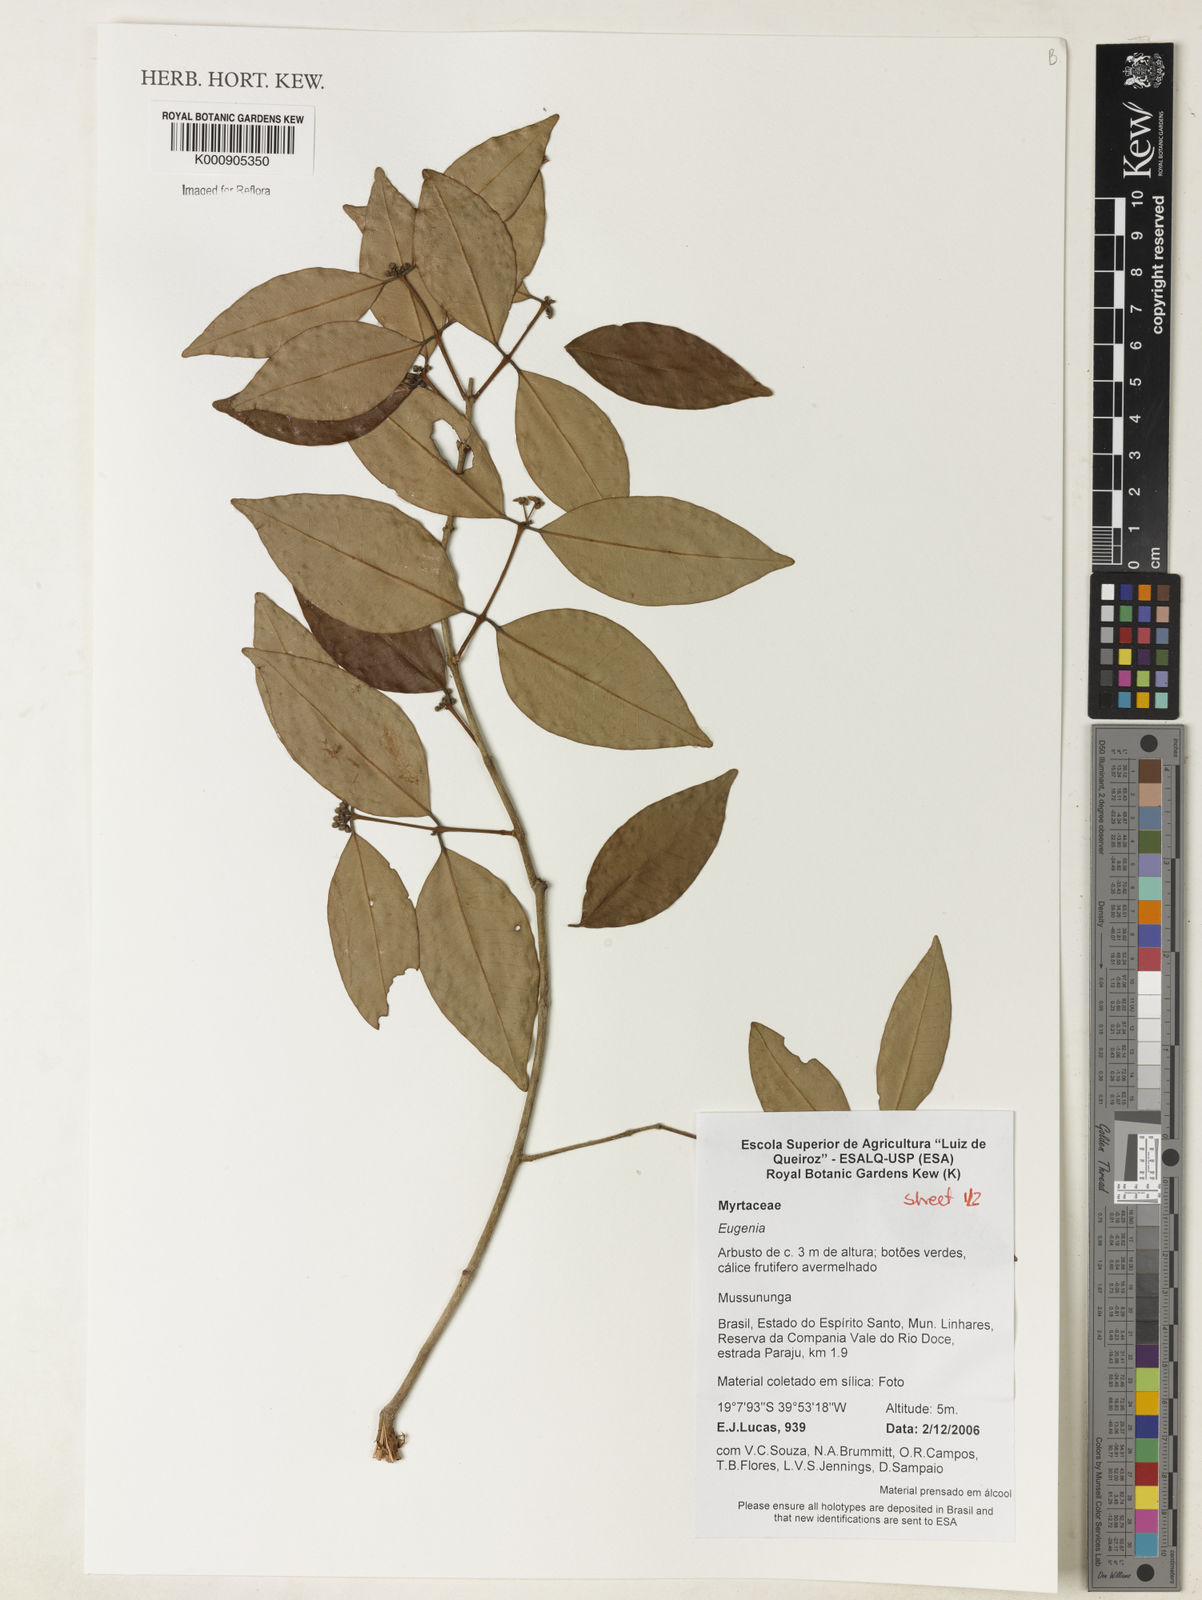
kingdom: Plantae
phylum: Tracheophyta
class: Magnoliopsida
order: Myrtales
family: Myrtaceae
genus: Eugenia
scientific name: Eugenia brejoensis
